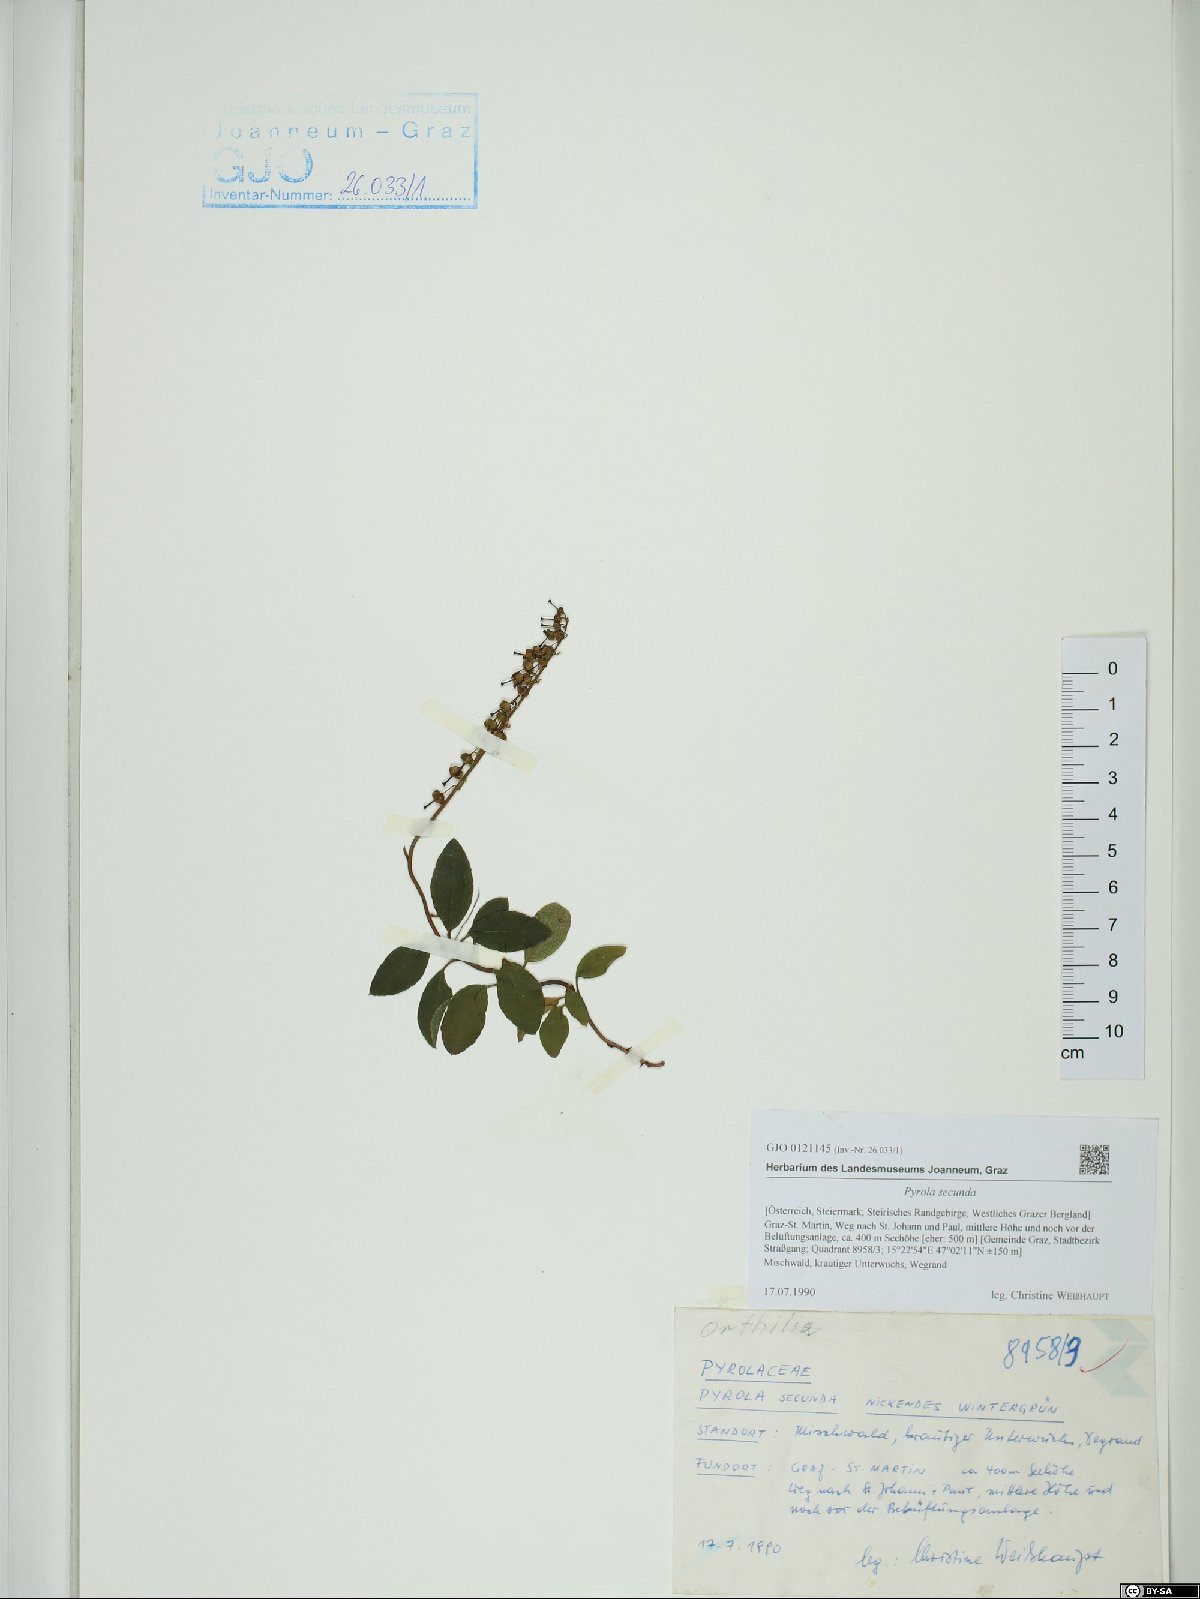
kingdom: Plantae
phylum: Tracheophyta
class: Magnoliopsida
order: Ericales
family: Ericaceae
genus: Orthilia
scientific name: Orthilia secunda
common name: One-sided orthilia
